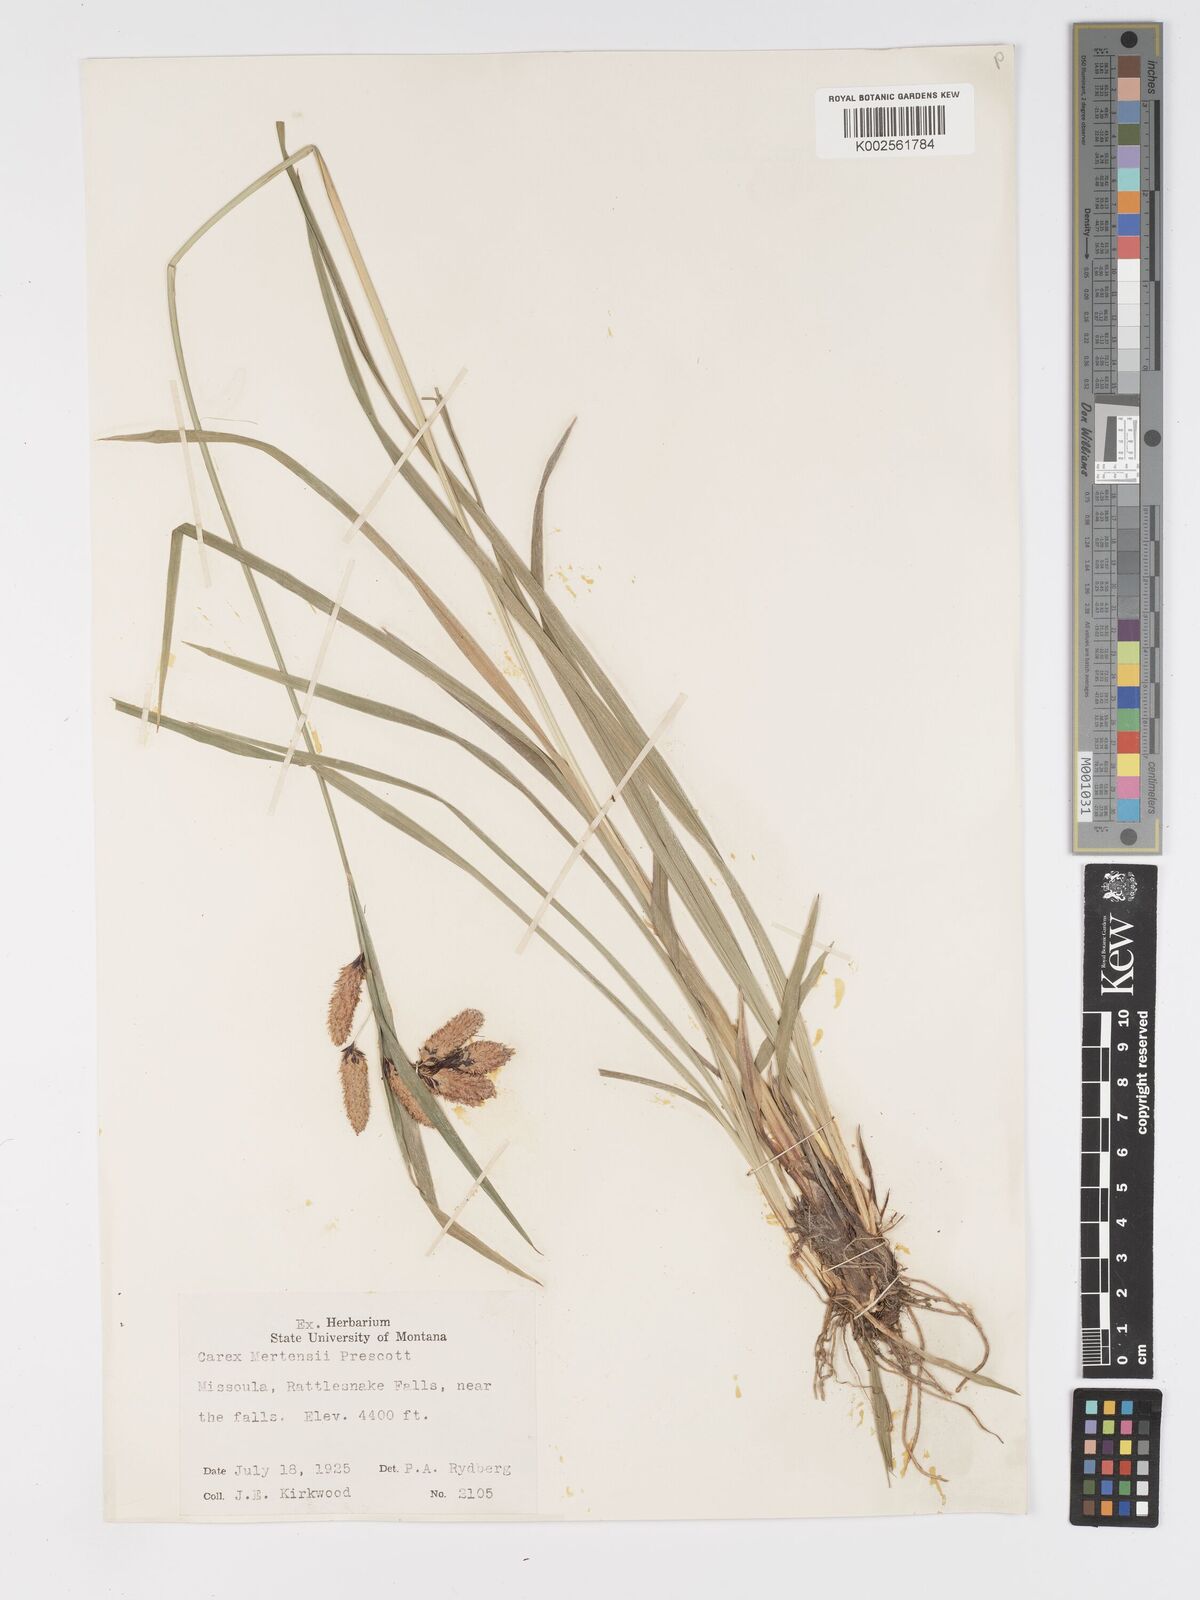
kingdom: Plantae
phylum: Tracheophyta
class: Liliopsida
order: Poales
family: Cyperaceae
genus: Carex
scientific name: Carex mertensii
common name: Mertens' sedge
